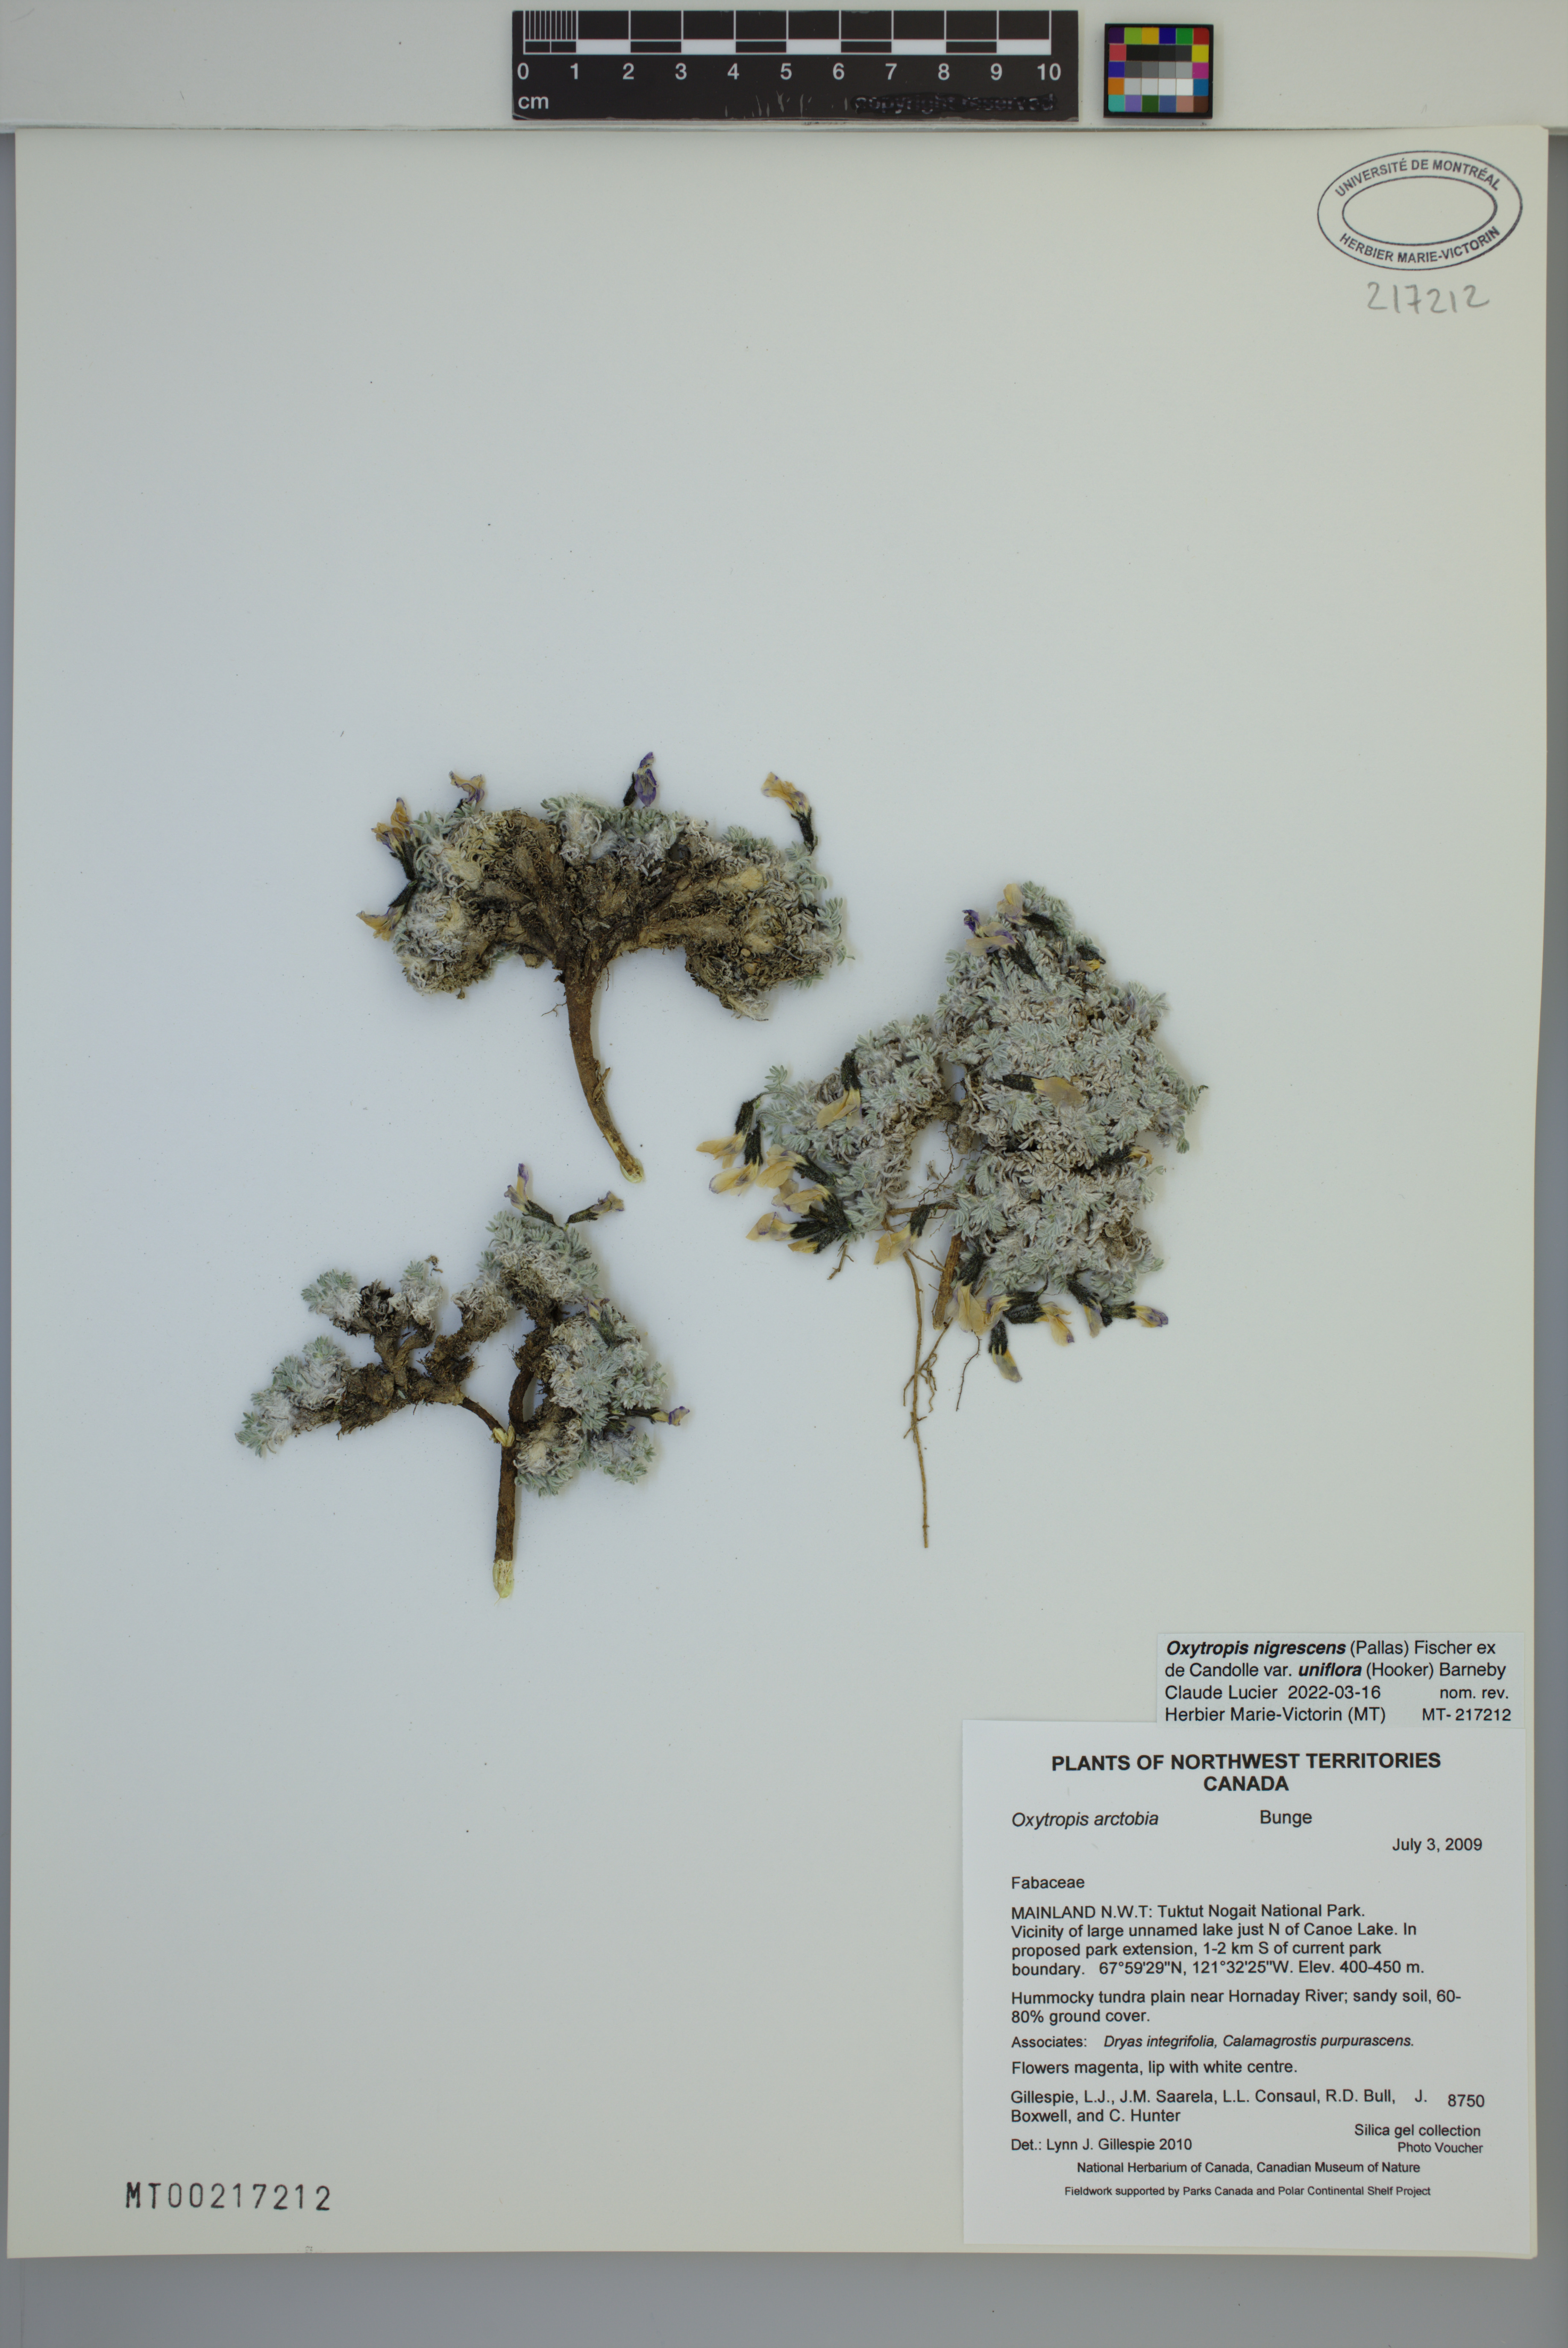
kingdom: Plantae
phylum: Tracheophyta
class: Magnoliopsida
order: Fabales
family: Fabaceae
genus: Oxytropis
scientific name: Oxytropis nigrescens
